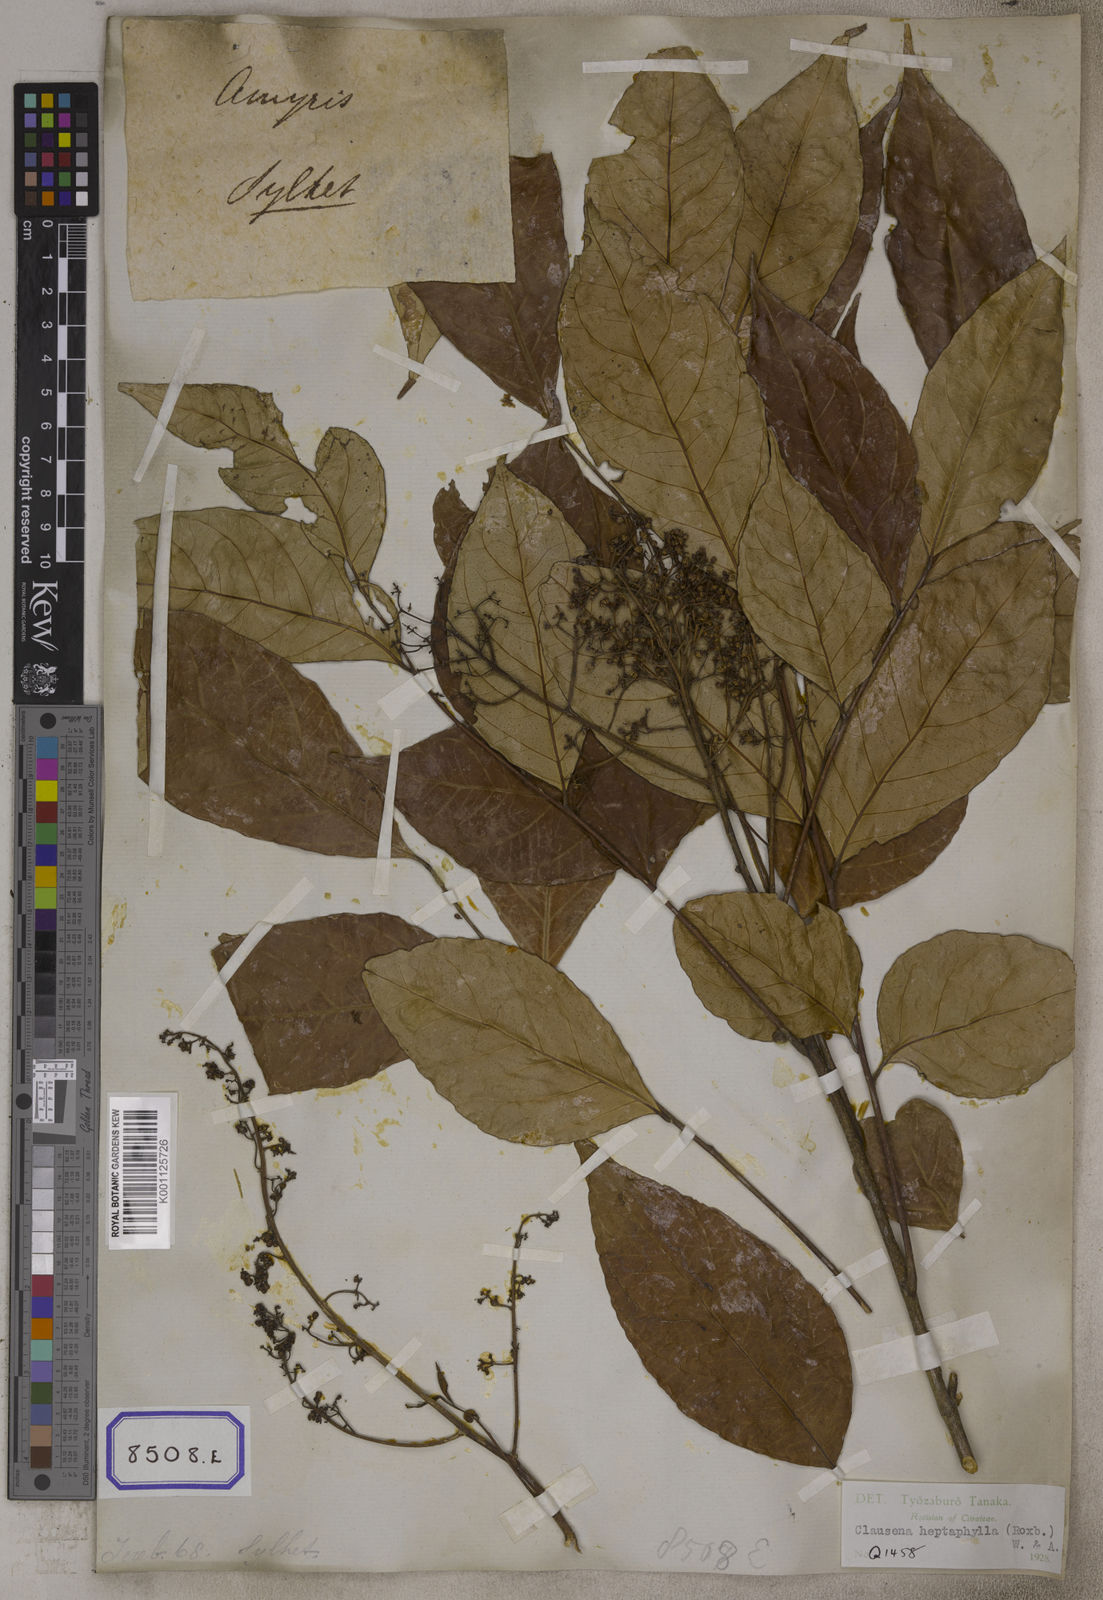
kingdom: Plantae
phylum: Tracheophyta
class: Magnoliopsida
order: Sapindales
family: Rutaceae
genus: Clausena
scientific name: Clausena heptaphylla
